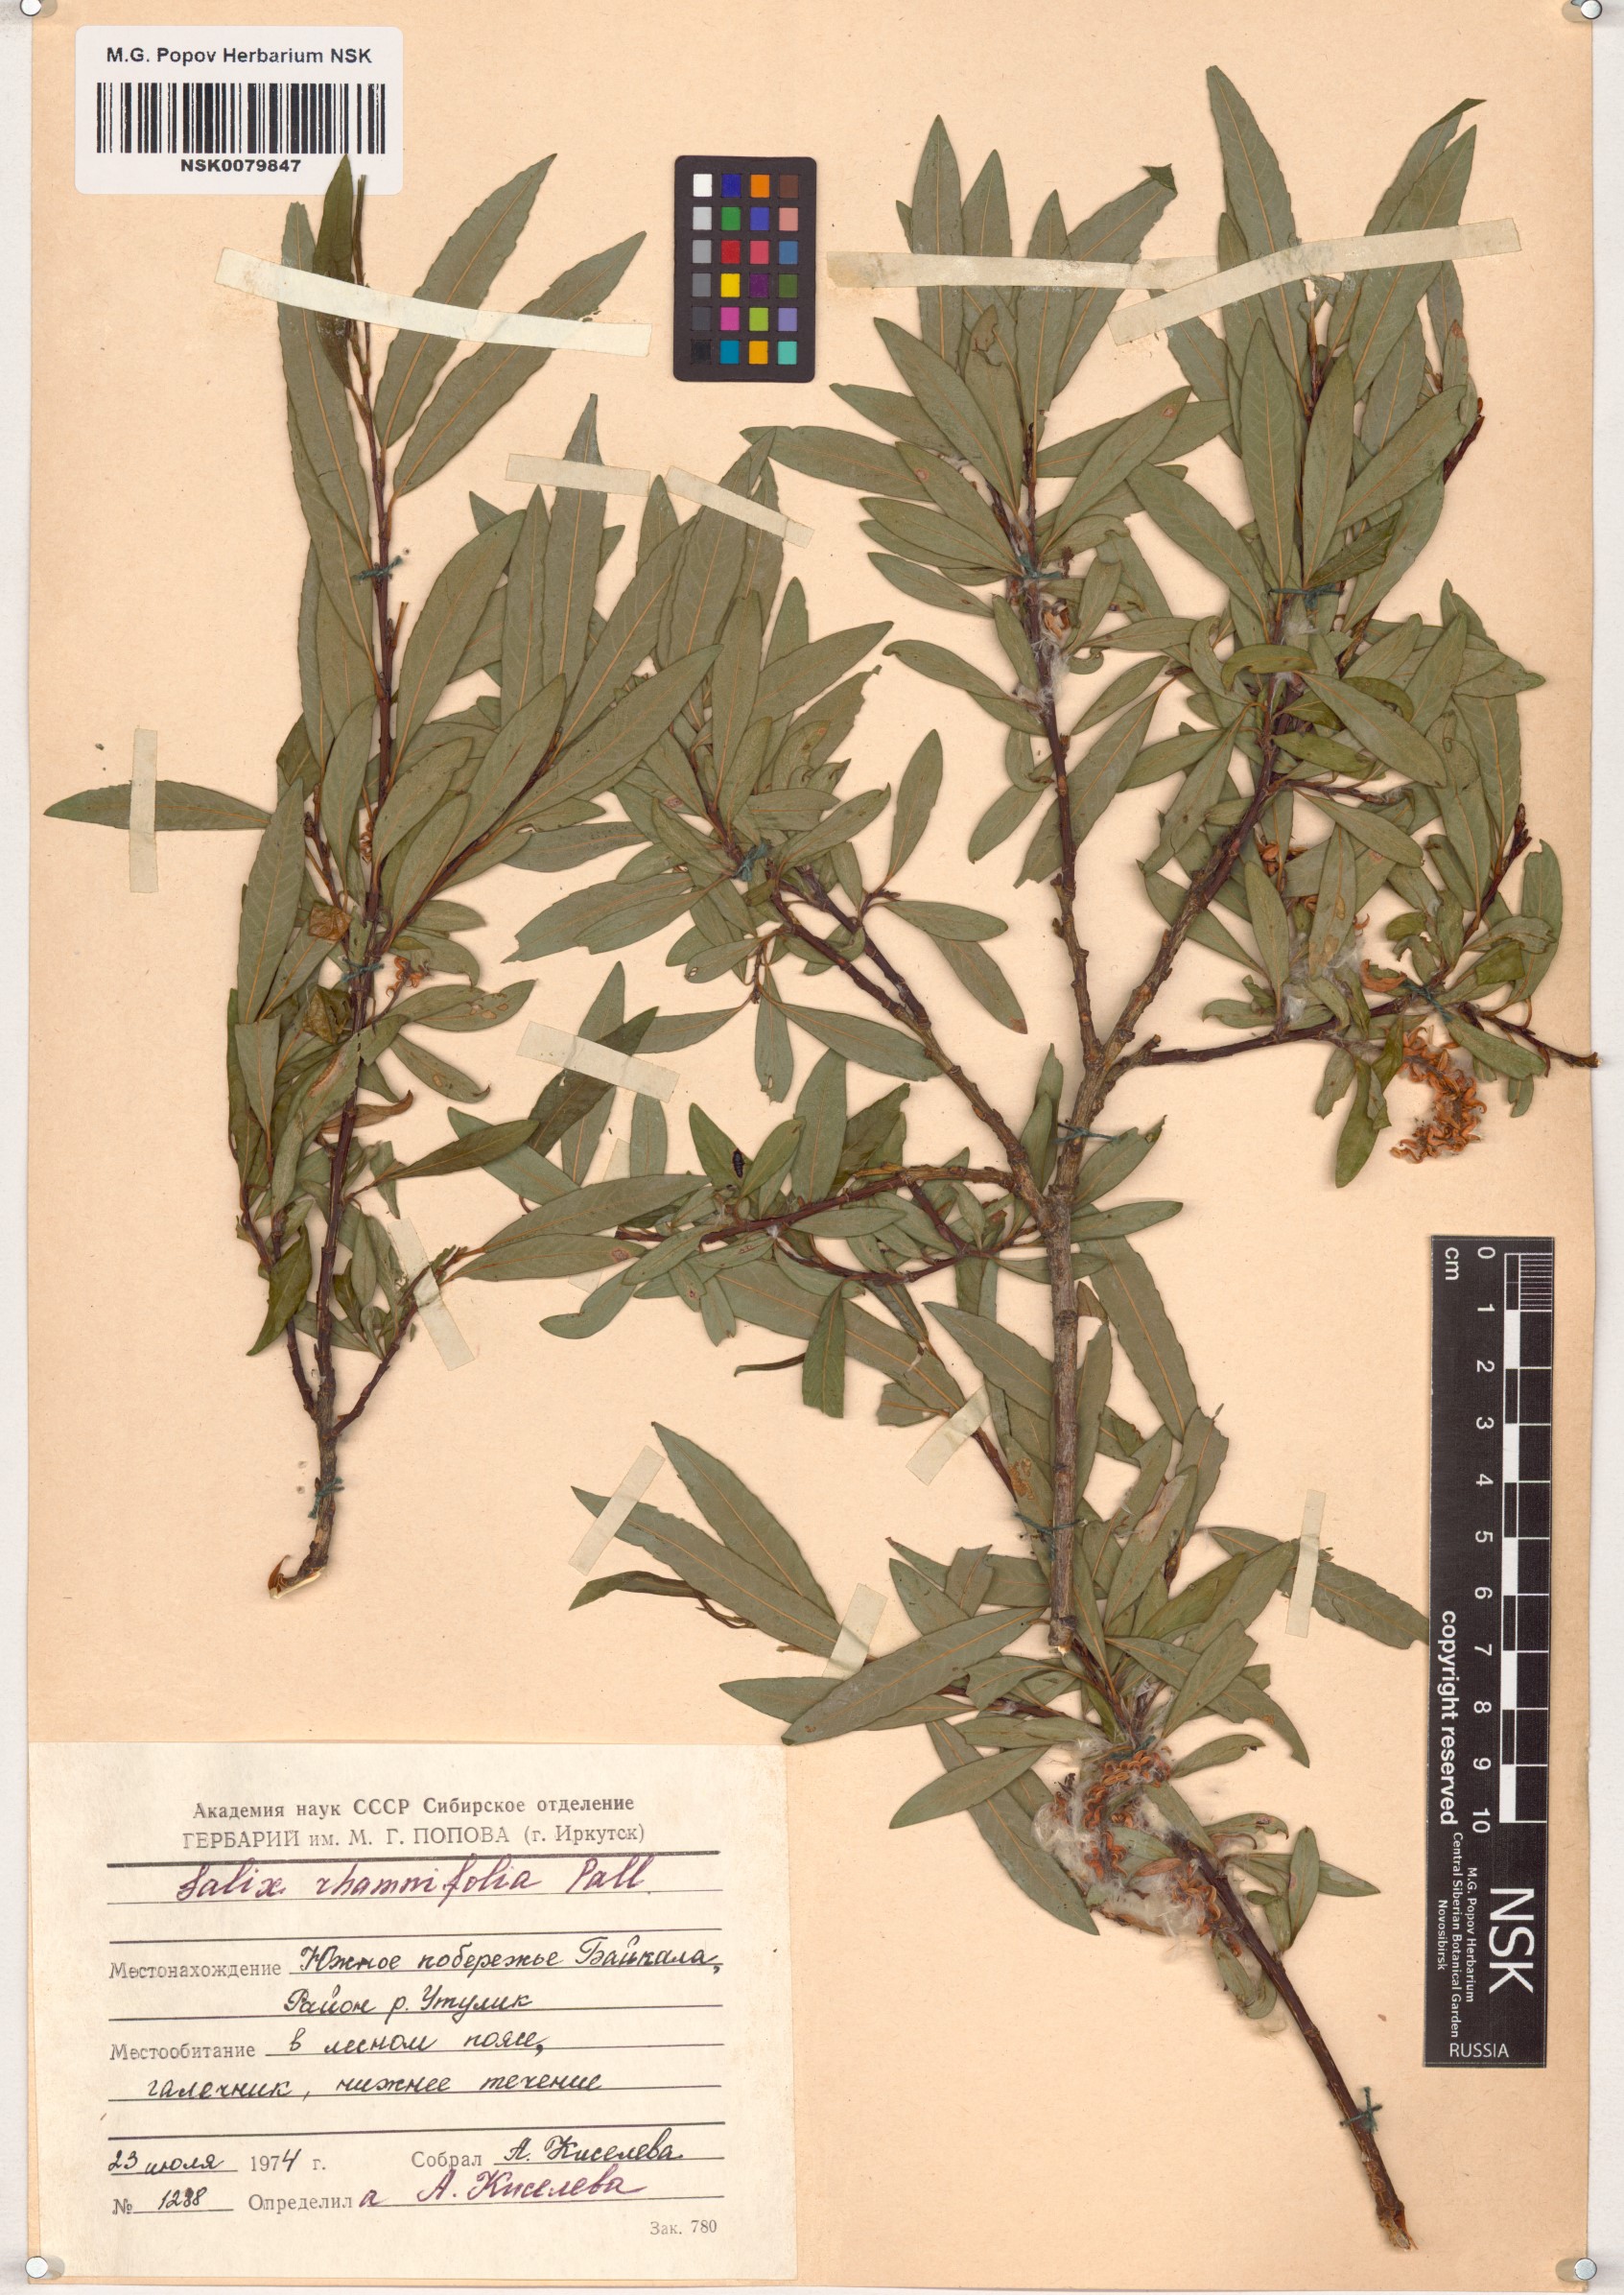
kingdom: Plantae
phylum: Tracheophyta
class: Magnoliopsida
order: Malpighiales
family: Salicaceae
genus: Salix
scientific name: Salix rhamnifolia
